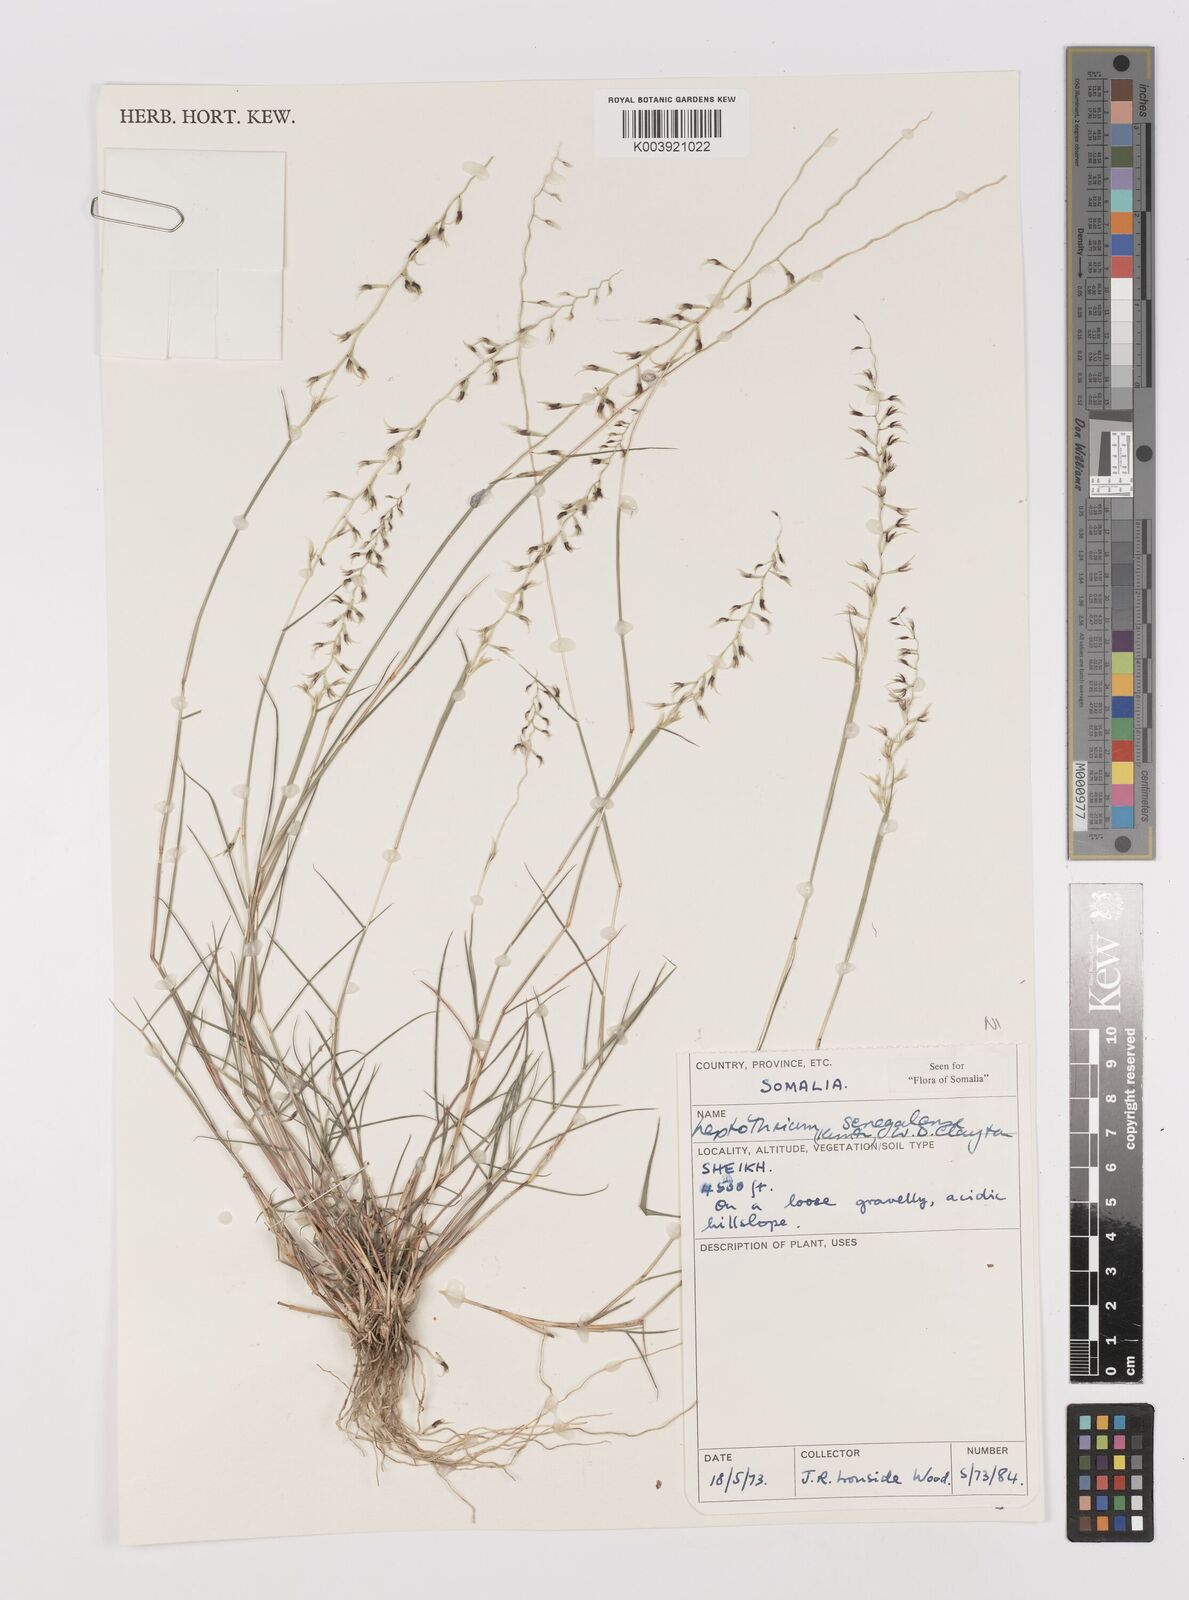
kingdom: Plantae
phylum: Tracheophyta
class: Liliopsida
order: Poales
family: Poaceae
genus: Leptothrium
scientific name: Leptothrium senegalense
